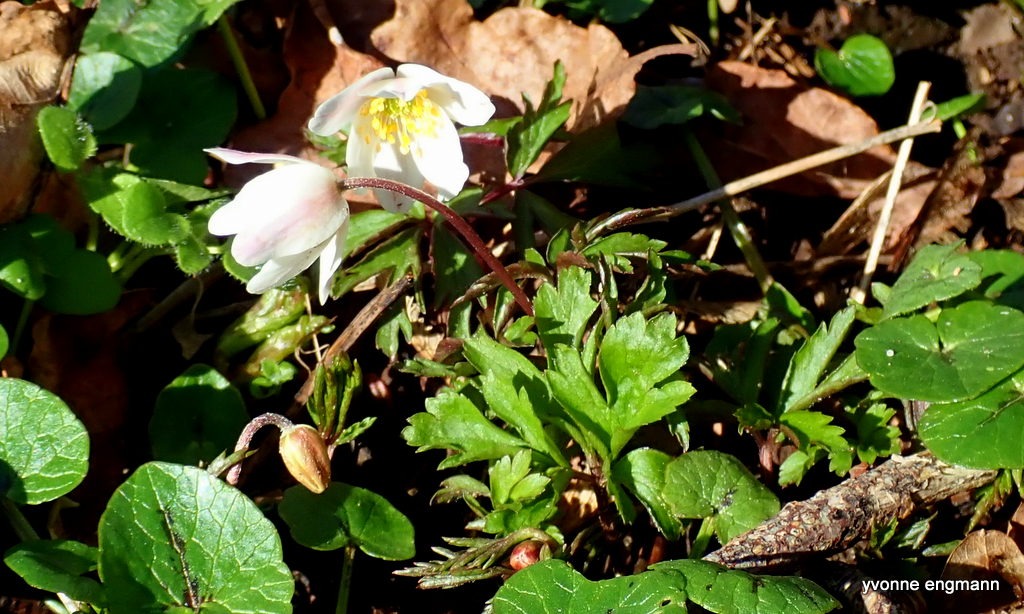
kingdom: Plantae
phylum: Tracheophyta
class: Magnoliopsida
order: Ranunculales
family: Ranunculaceae
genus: Anemone
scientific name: Anemone nemorosa
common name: Hvid anemone
